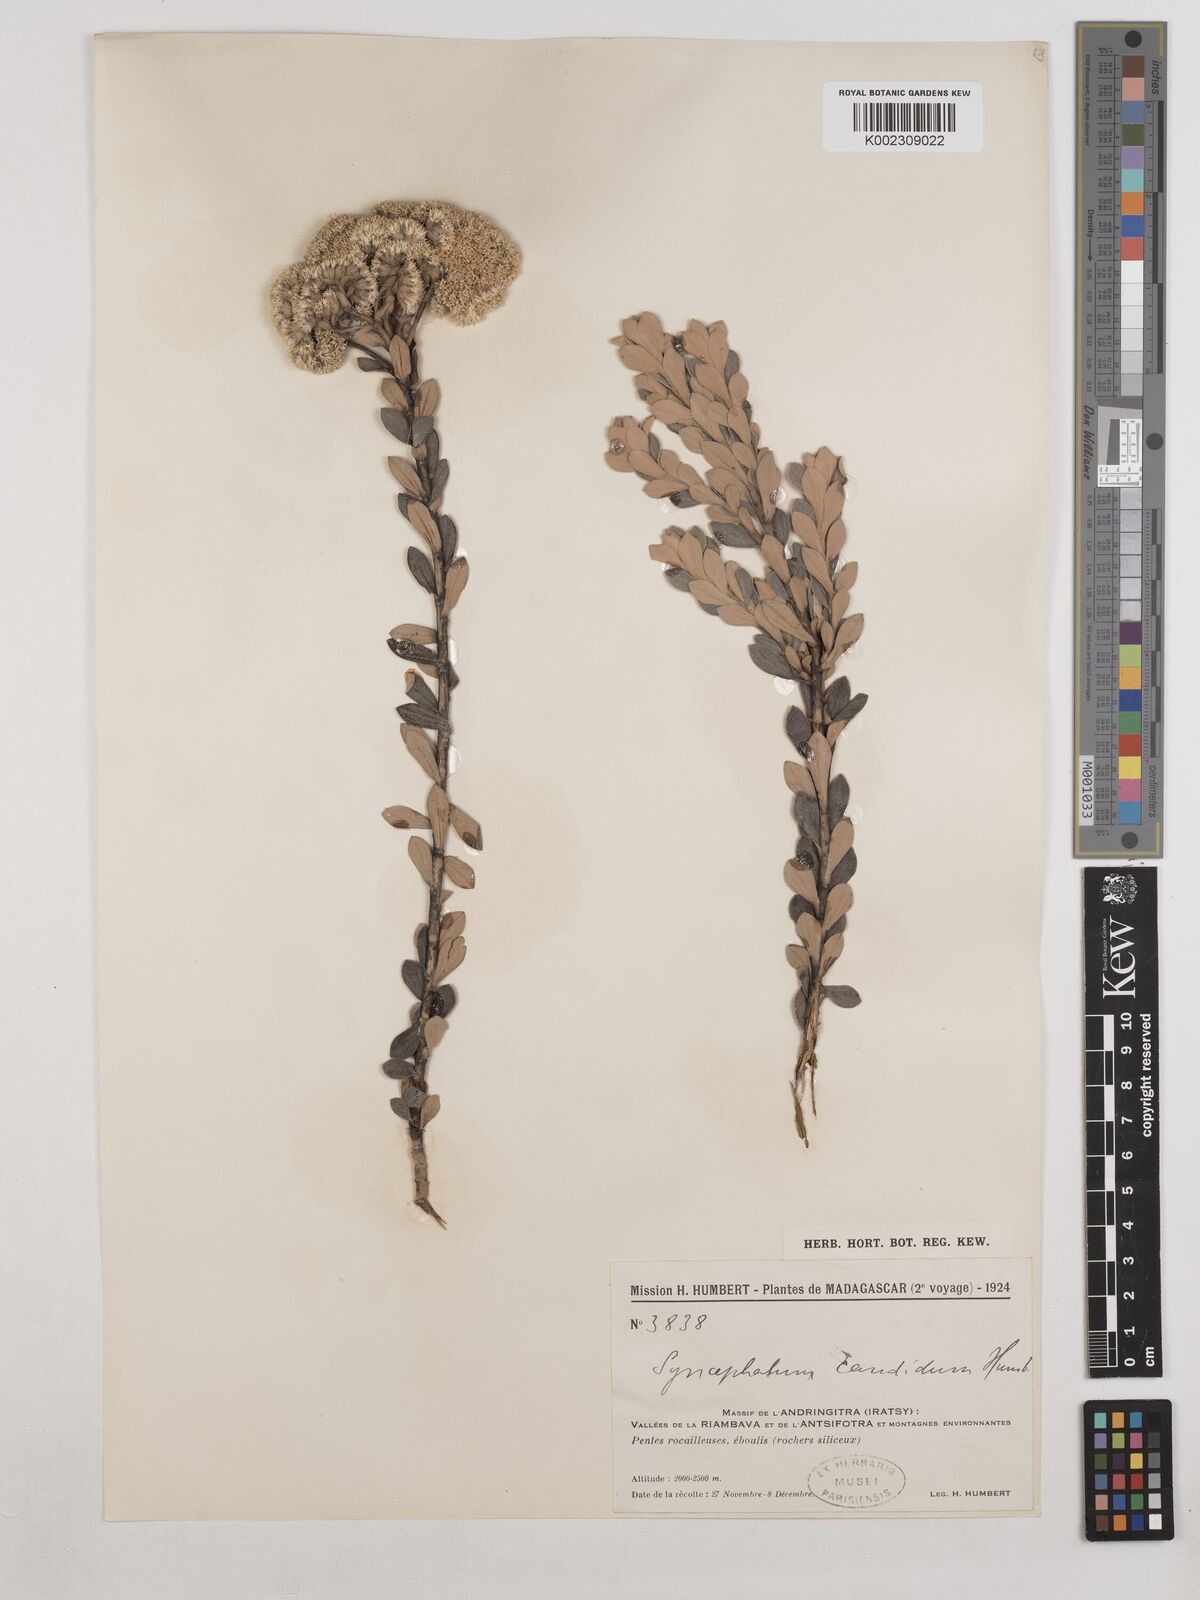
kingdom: Plantae
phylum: Tracheophyta
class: Magnoliopsida
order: Asterales
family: Asteraceae
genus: Syncephalum
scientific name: Syncephalum candidum
